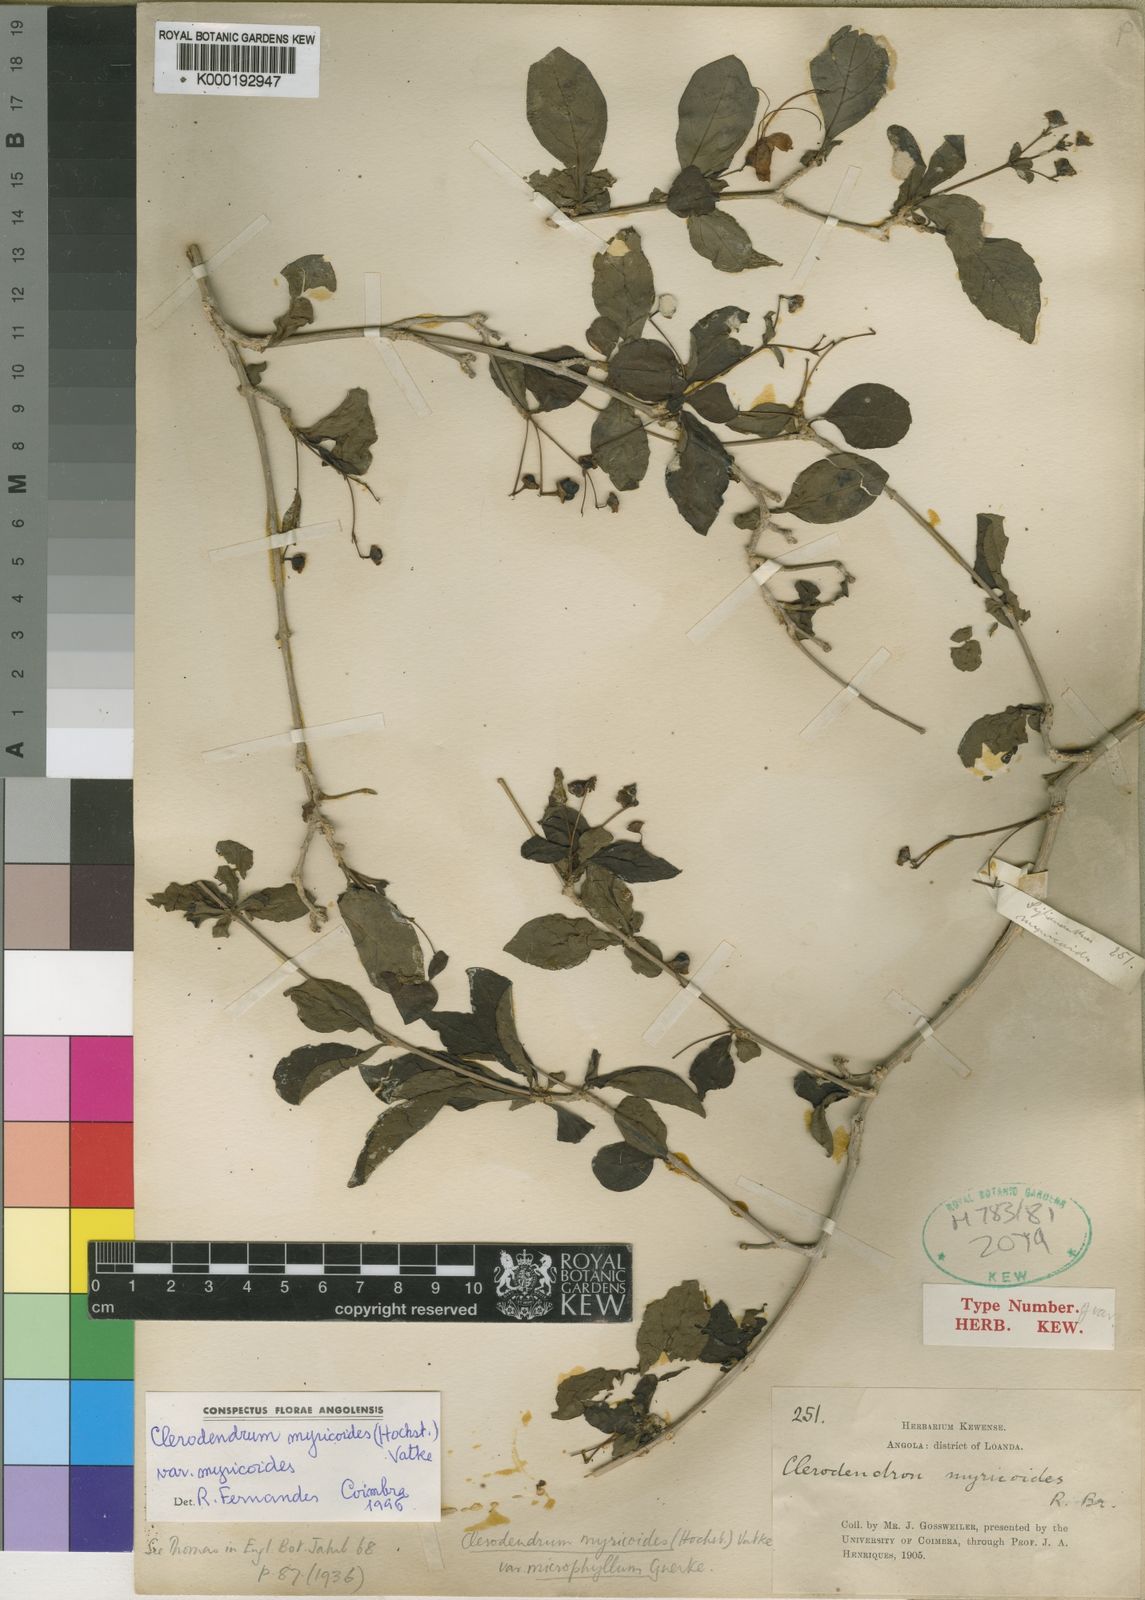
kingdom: Plantae
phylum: Tracheophyta
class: Magnoliopsida
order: Lamiales
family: Lamiaceae
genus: Rotheca
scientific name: Rotheca myricoides
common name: Cats-whiskers
